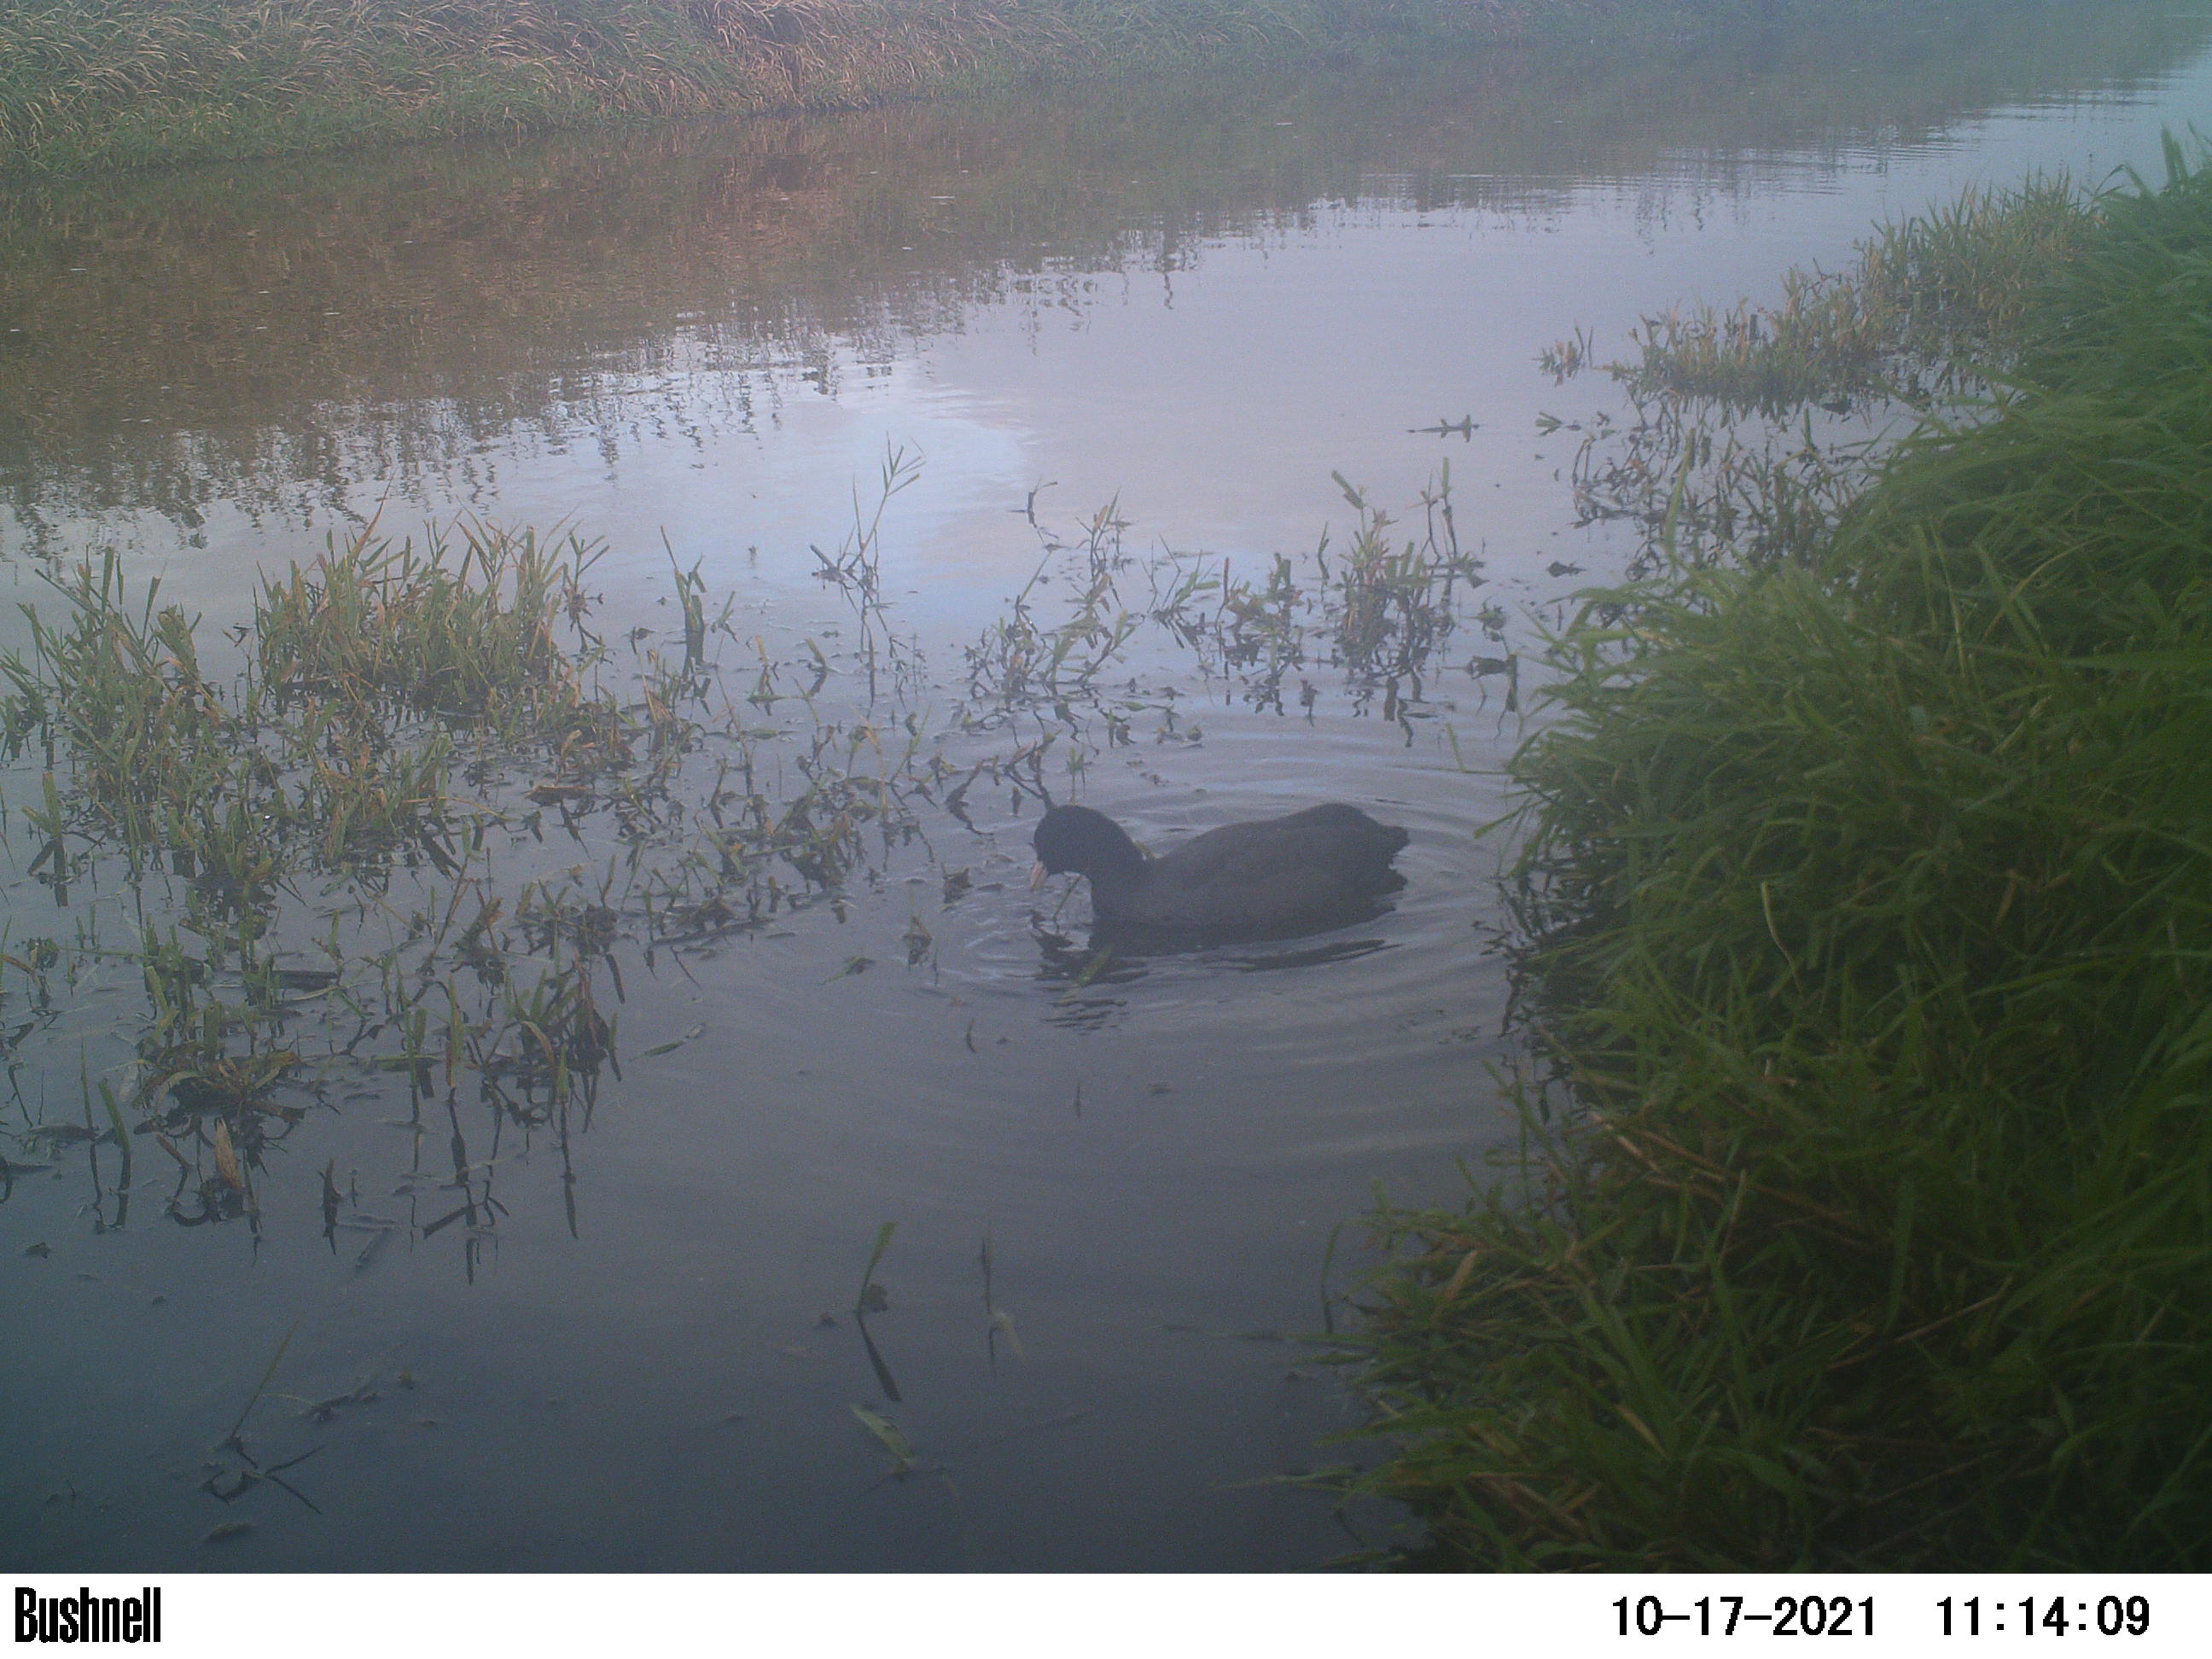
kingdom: Animalia
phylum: Chordata
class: Aves
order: Gruiformes
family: Rallidae
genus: Fulica
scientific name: Fulica atra
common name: Eurasian coot
